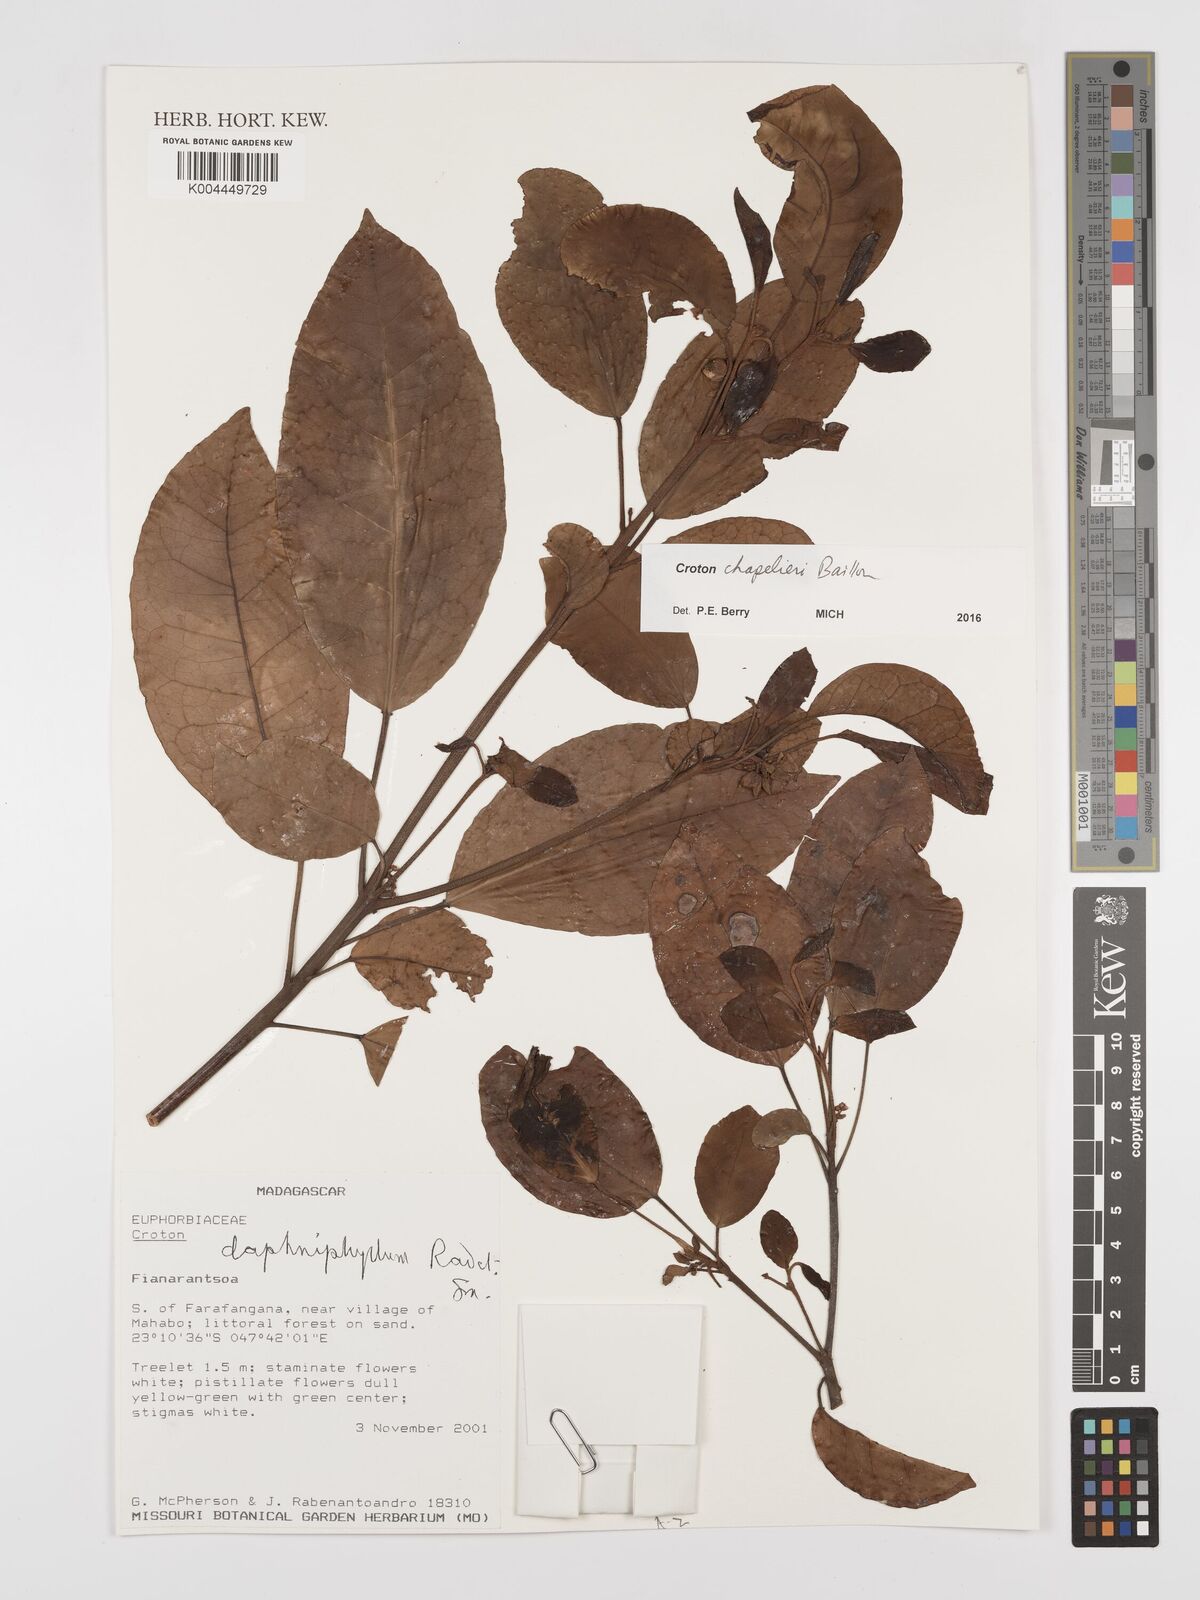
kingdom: Plantae
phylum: Tracheophyta
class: Magnoliopsida
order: Malpighiales
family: Euphorbiaceae
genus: Croton
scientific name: Croton chapelieri
